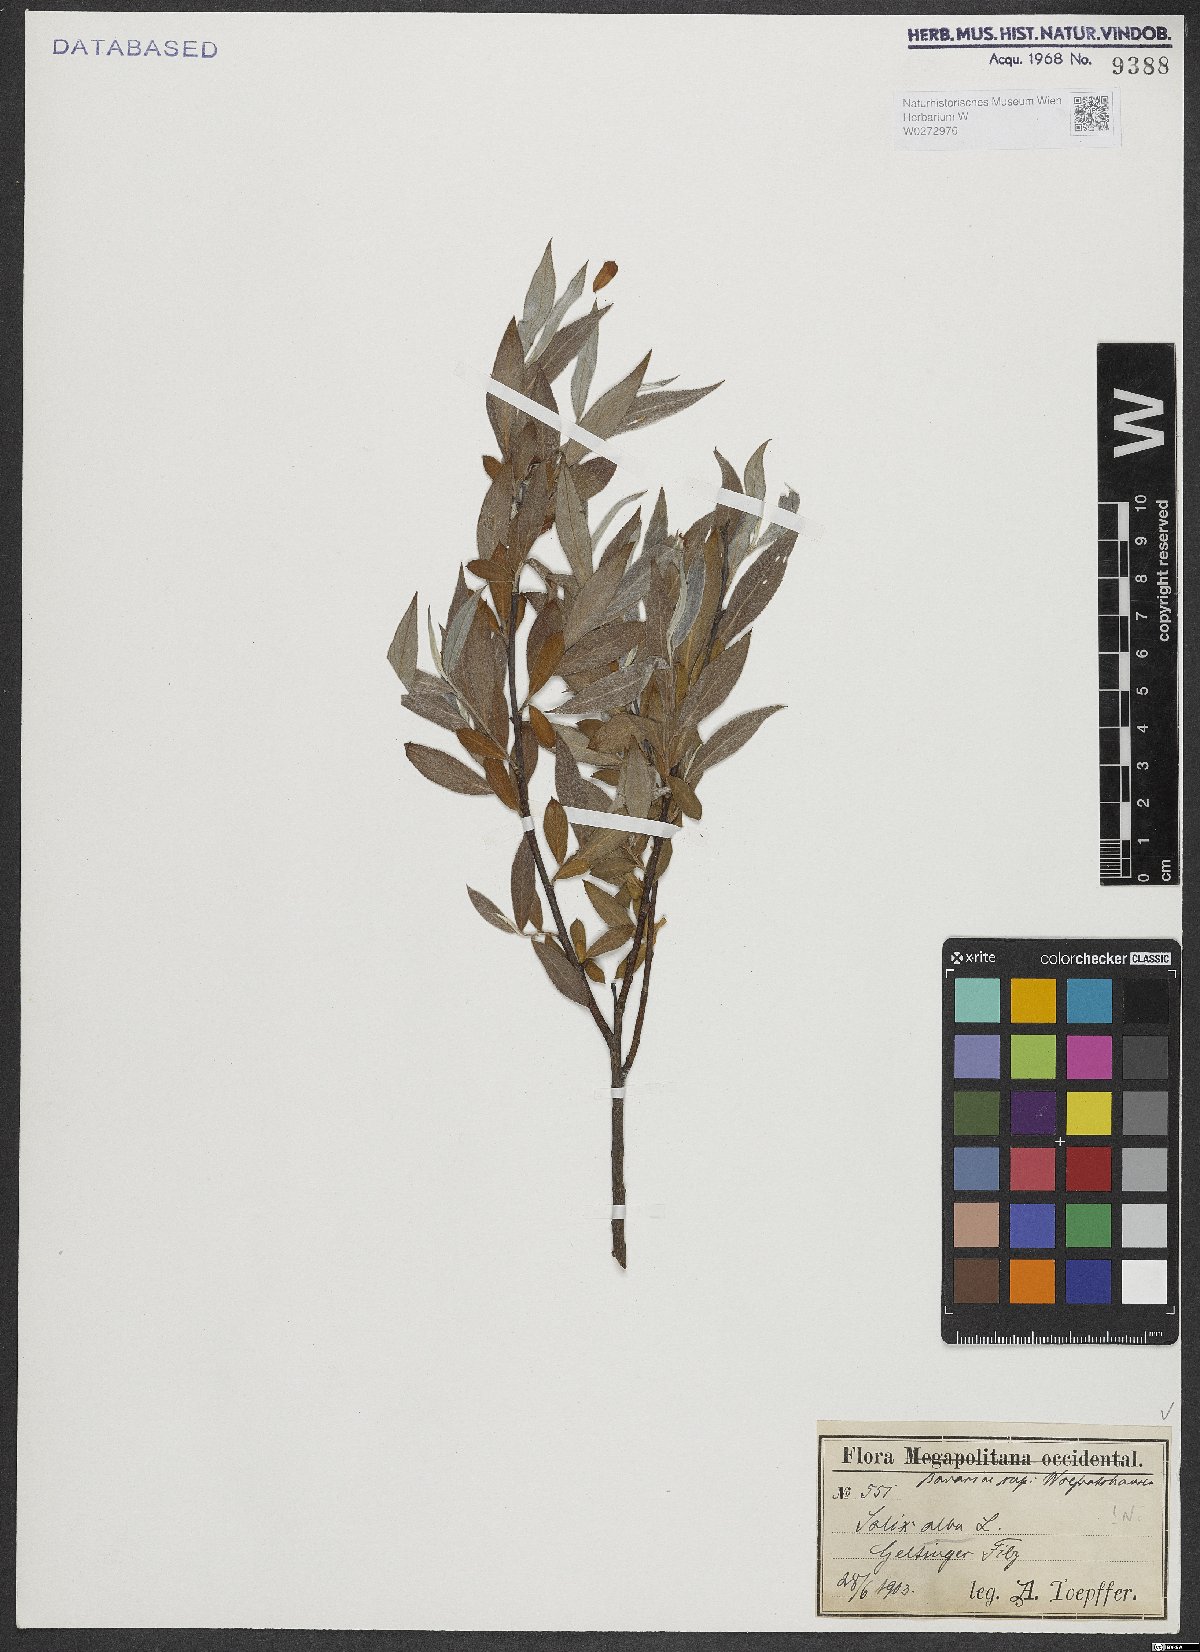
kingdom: Plantae
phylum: Tracheophyta
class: Magnoliopsida
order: Malpighiales
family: Salicaceae
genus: Salix
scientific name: Salix alba
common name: White willow
